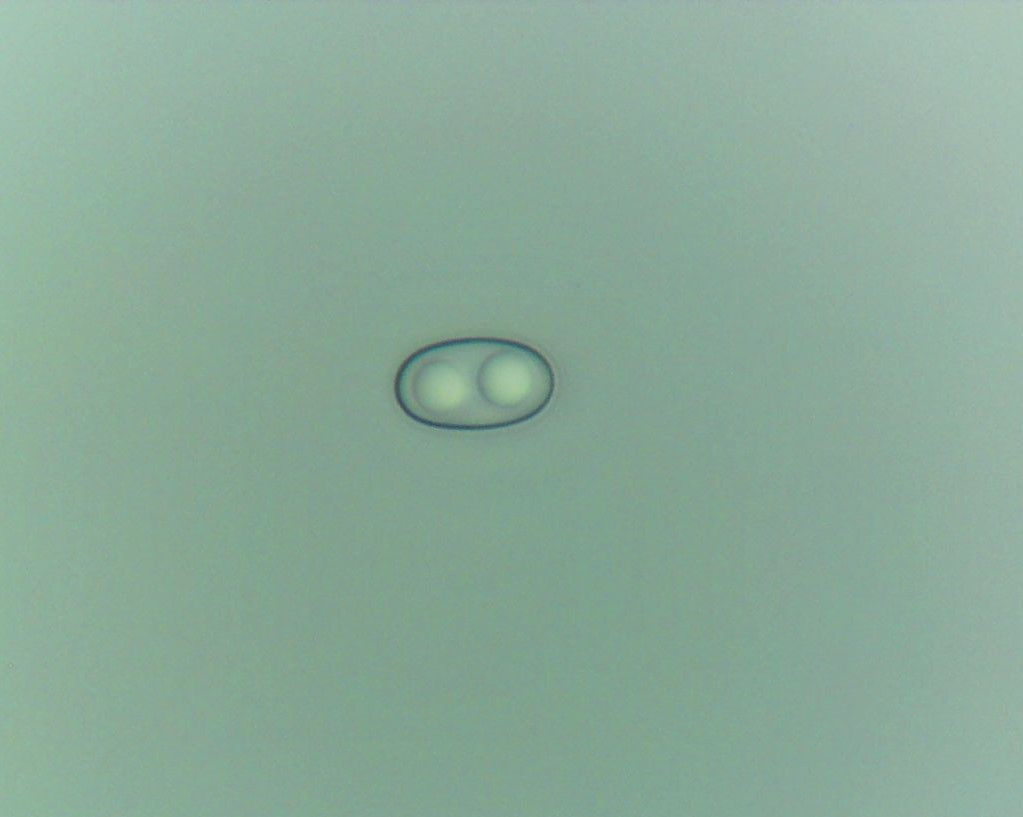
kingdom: Fungi
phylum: Ascomycota
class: Pezizomycetes
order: Pezizales
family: Otideaceae
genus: Otidea
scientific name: Otidea
